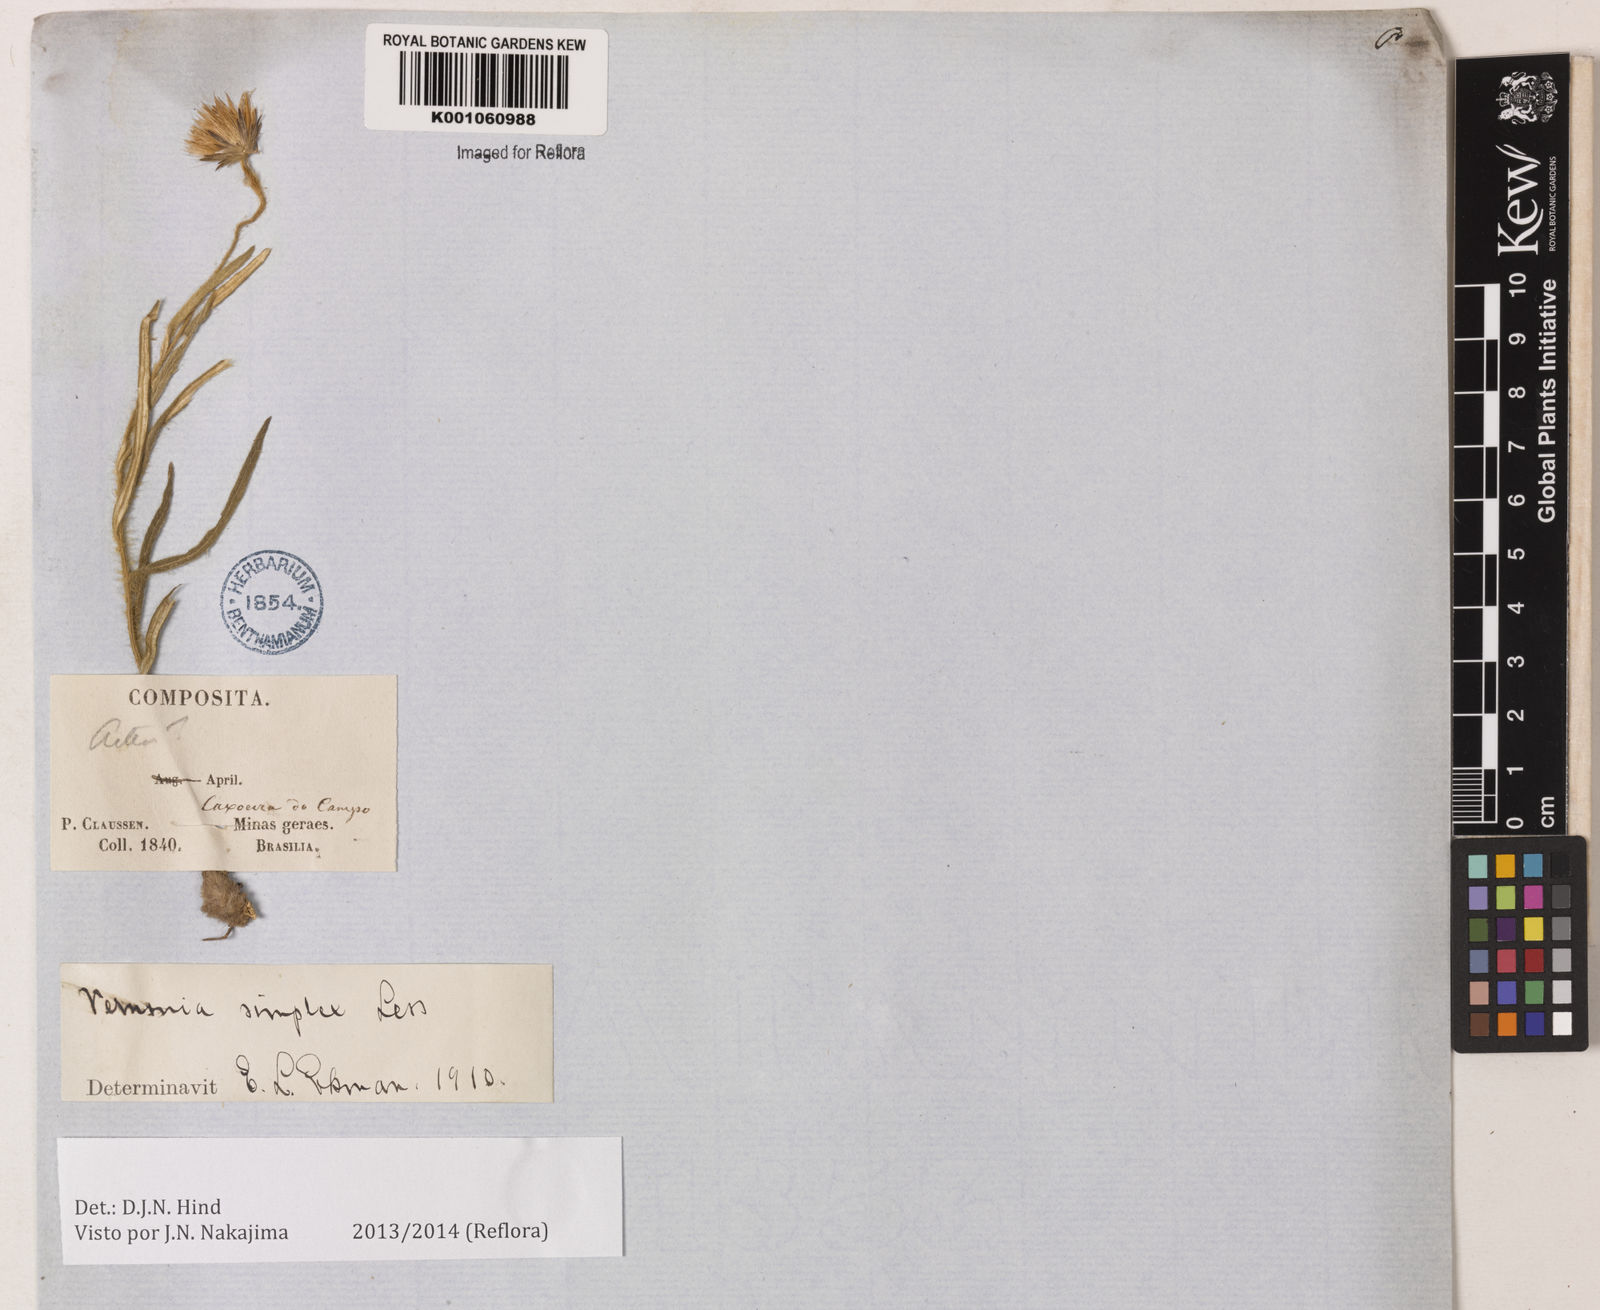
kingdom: Plantae
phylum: Tracheophyta
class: Magnoliopsida
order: Asterales
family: Asteraceae
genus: Chrysolaena
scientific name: Chrysolaena simplex
